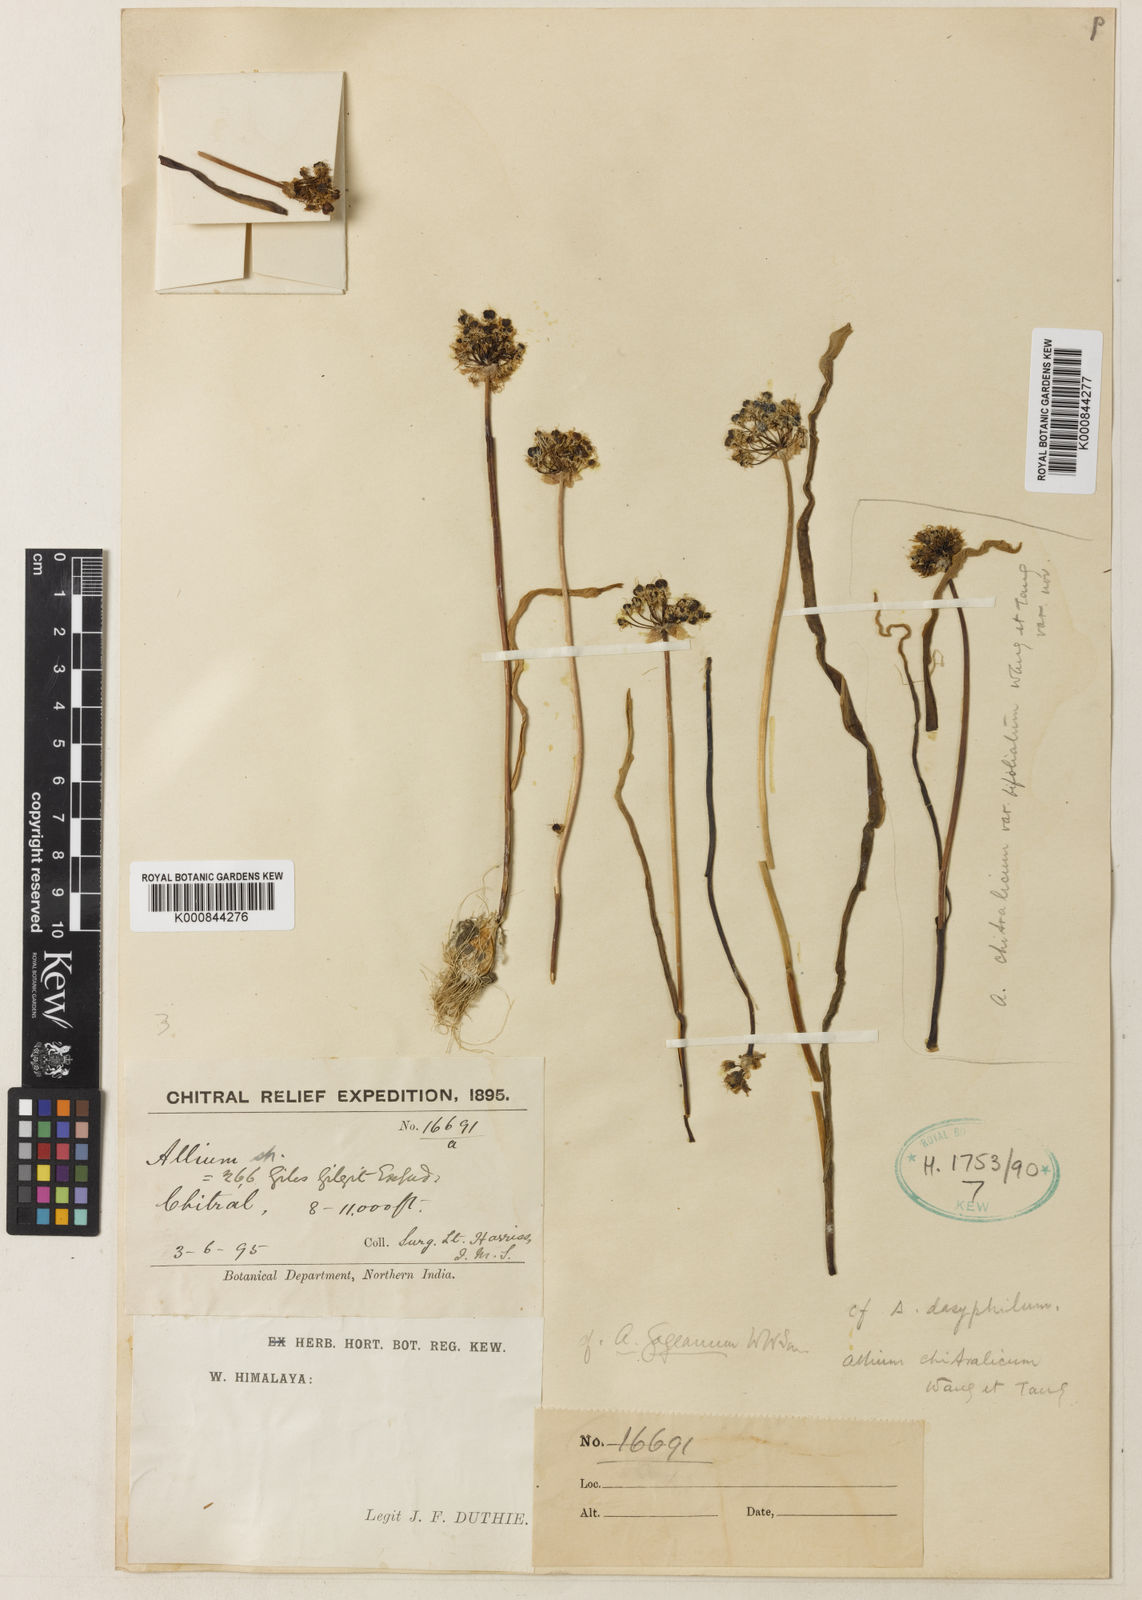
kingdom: Plantae
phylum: Tracheophyta
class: Liliopsida
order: Asparagales
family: Amaryllidaceae
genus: Allium
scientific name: Allium
